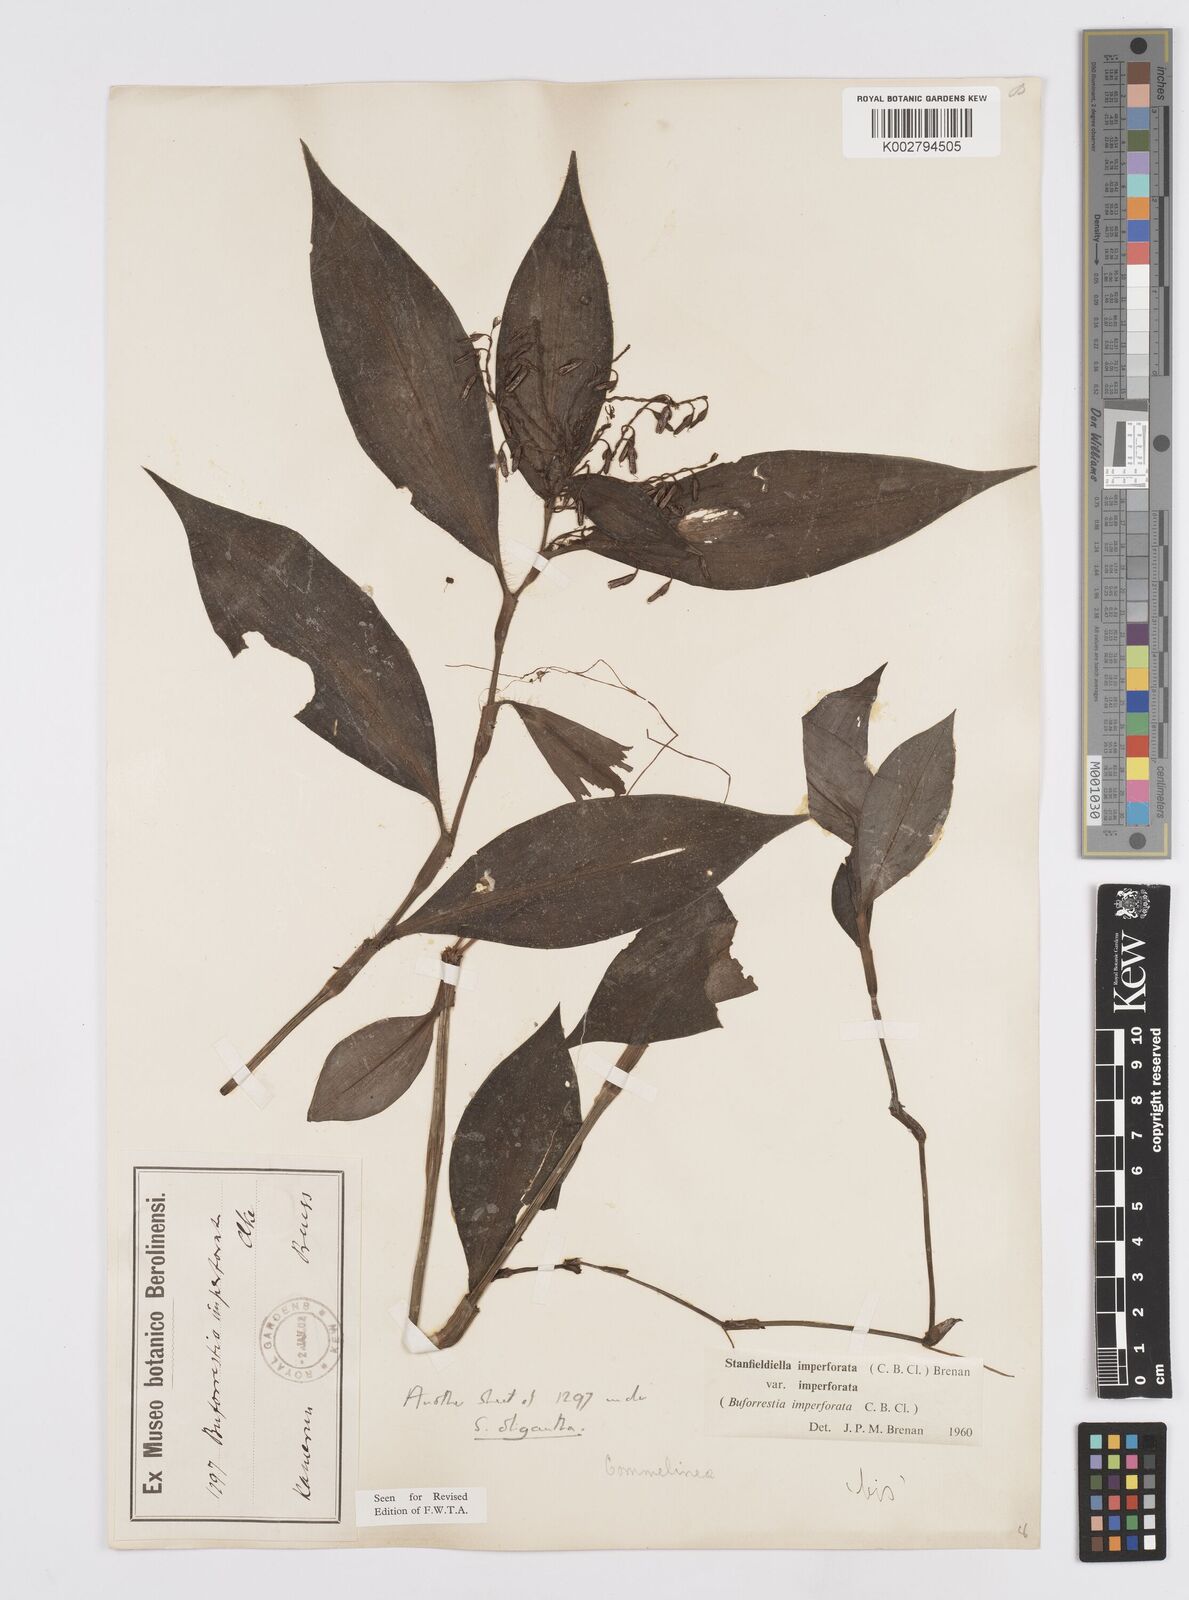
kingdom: Plantae
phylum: Tracheophyta
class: Liliopsida
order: Commelinales
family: Commelinaceae
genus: Stanfieldiella
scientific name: Stanfieldiella imperforata
